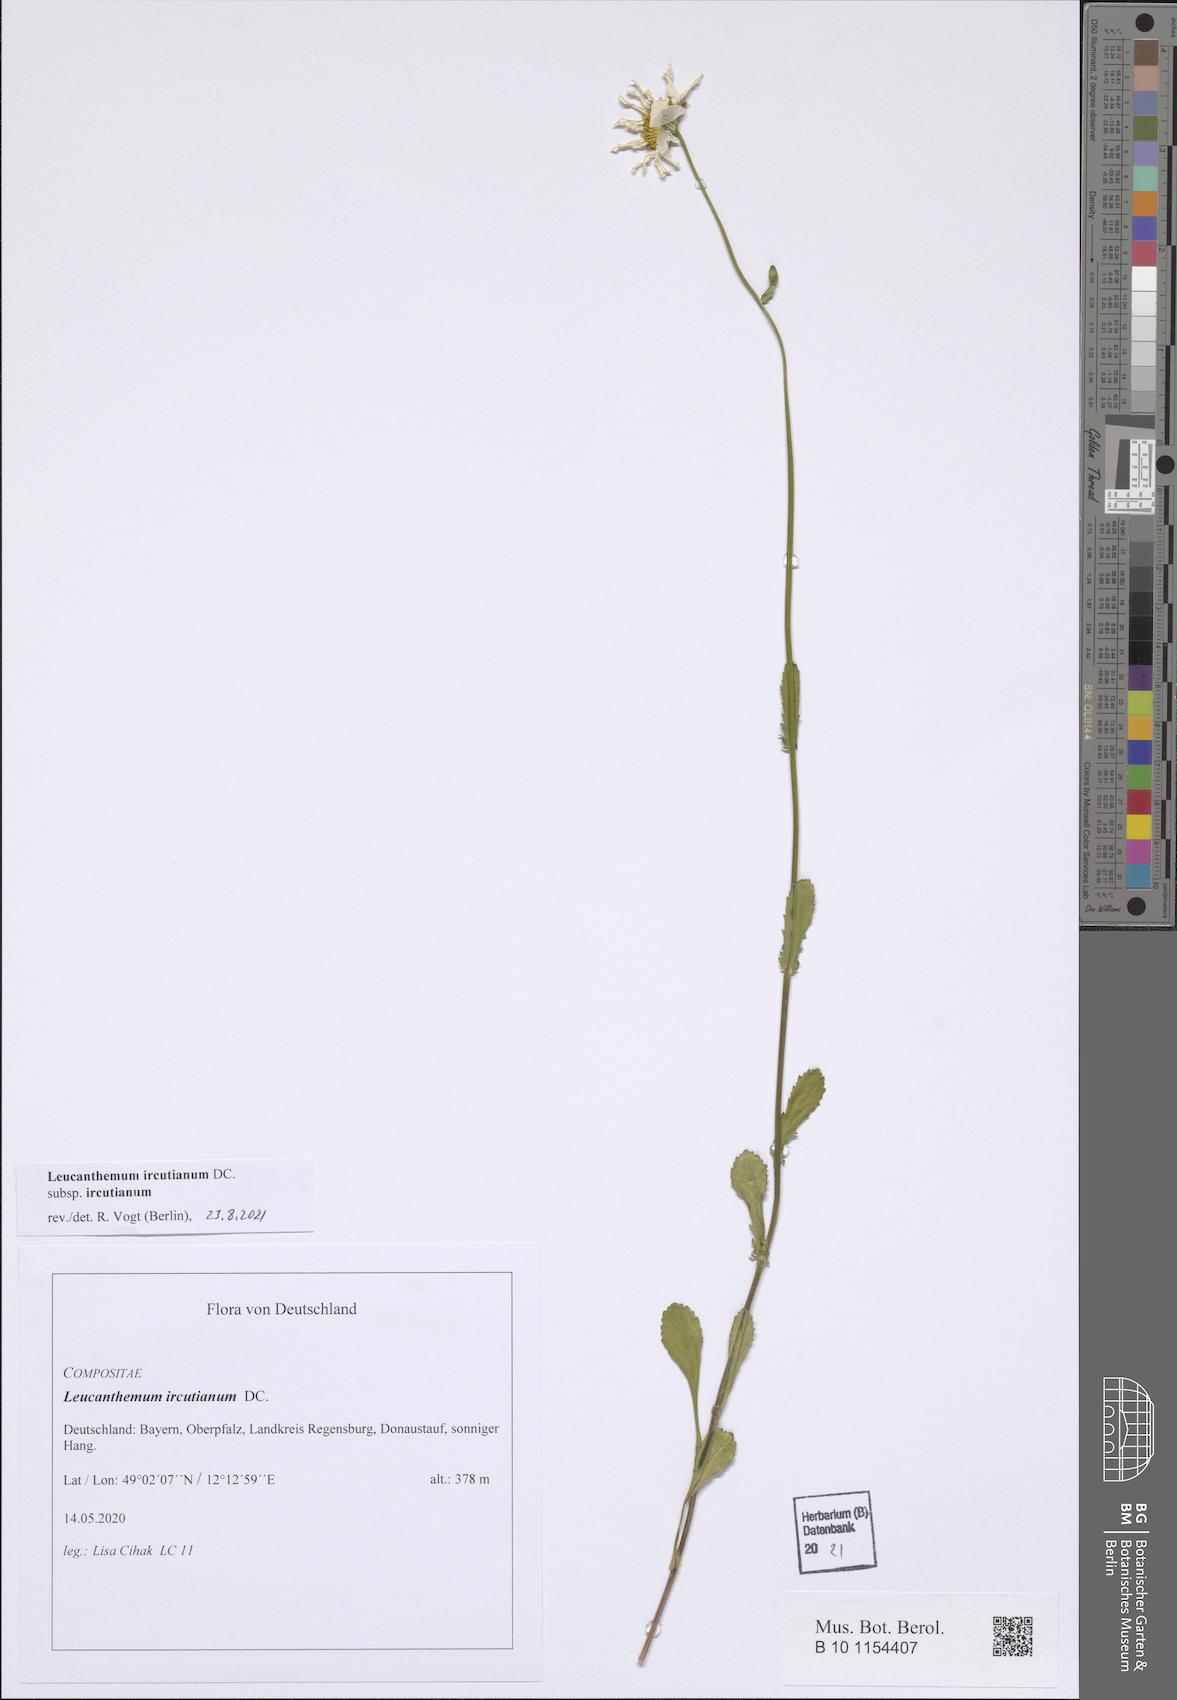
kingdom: Plantae
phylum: Tracheophyta
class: Magnoliopsida
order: Asterales
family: Asteraceae
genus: Leucanthemum
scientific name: Leucanthemum ircutianum
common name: Daisy
